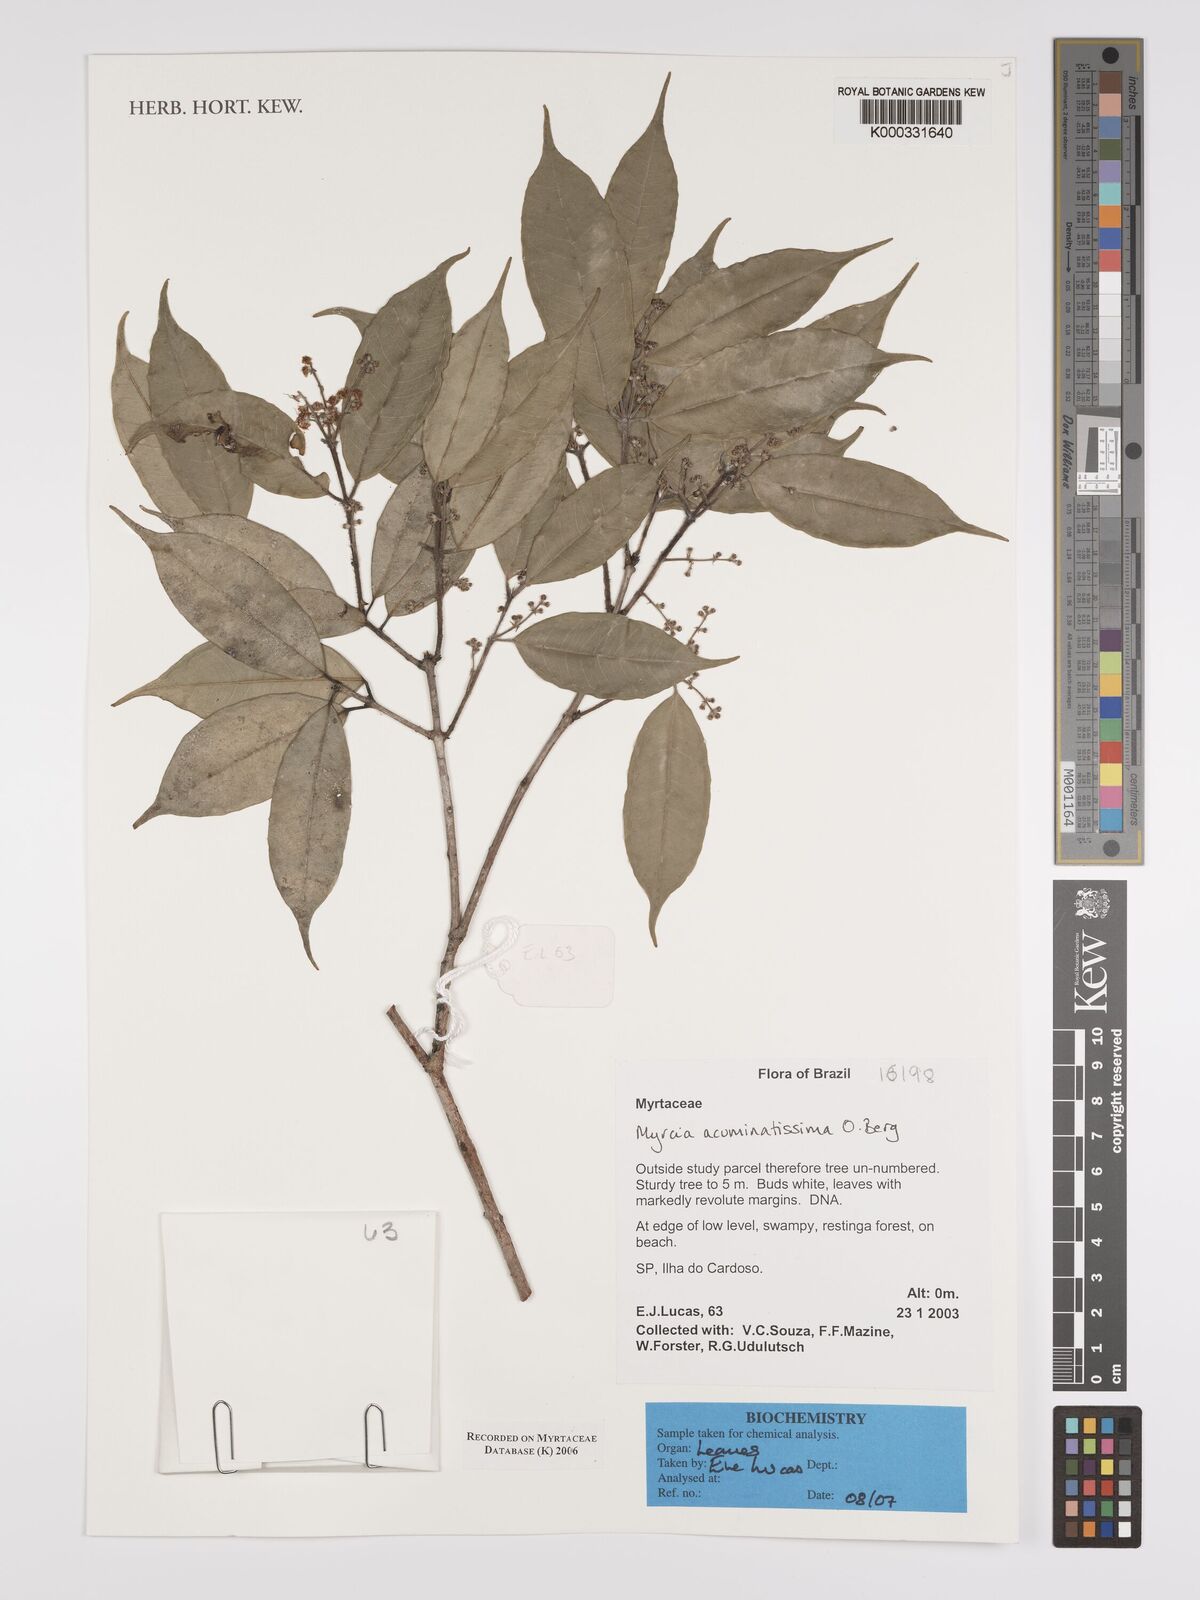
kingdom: Plantae
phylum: Tracheophyta
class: Magnoliopsida
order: Myrtales
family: Myrtaceae
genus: Myrcia
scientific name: Myrcia racemosa
